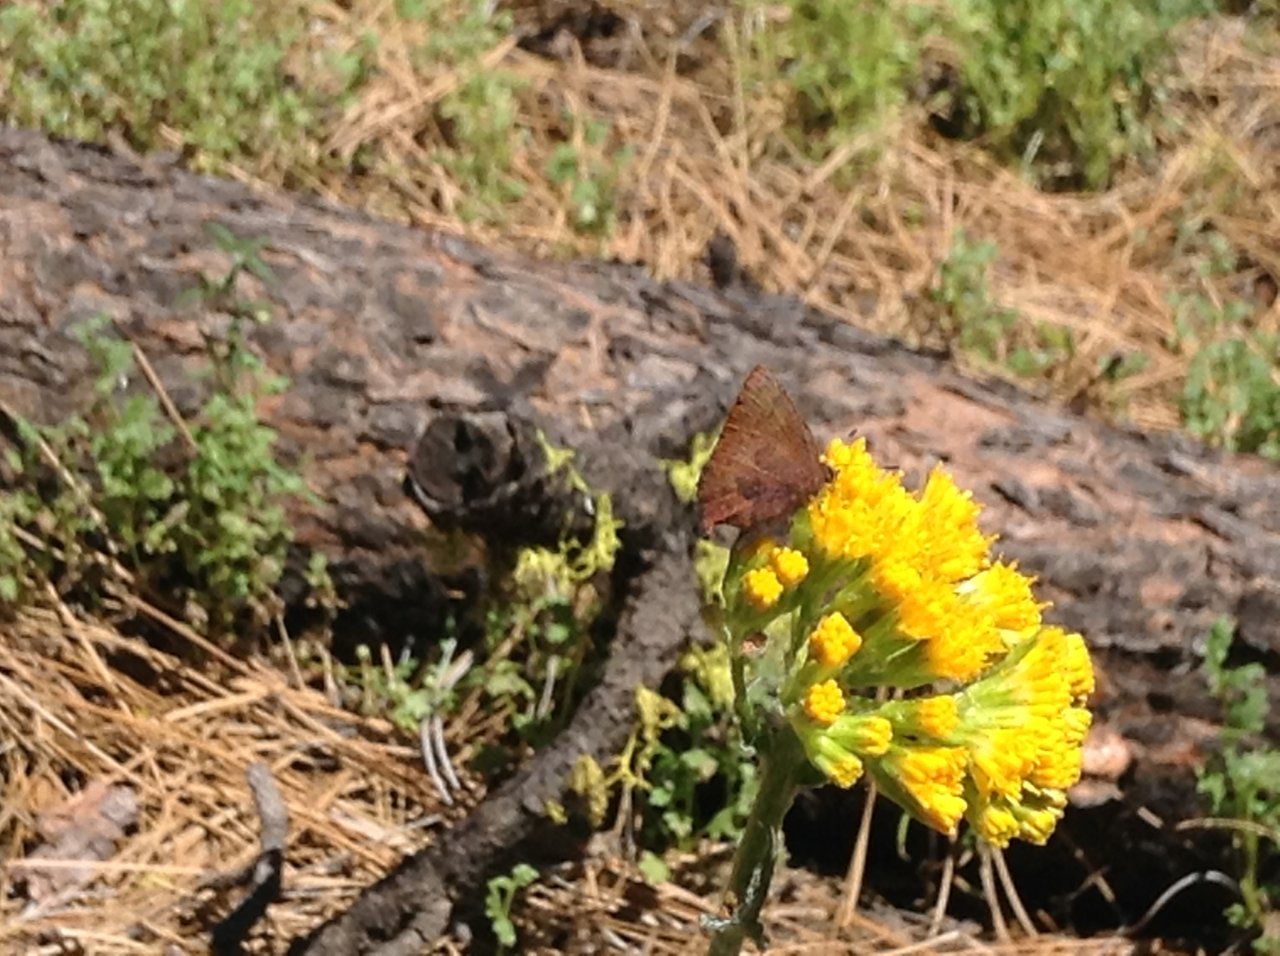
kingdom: Animalia
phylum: Arthropoda
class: Insecta
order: Lepidoptera
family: Lycaenidae
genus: Incisalia
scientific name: Incisalia irioides
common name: Brown Elfin
